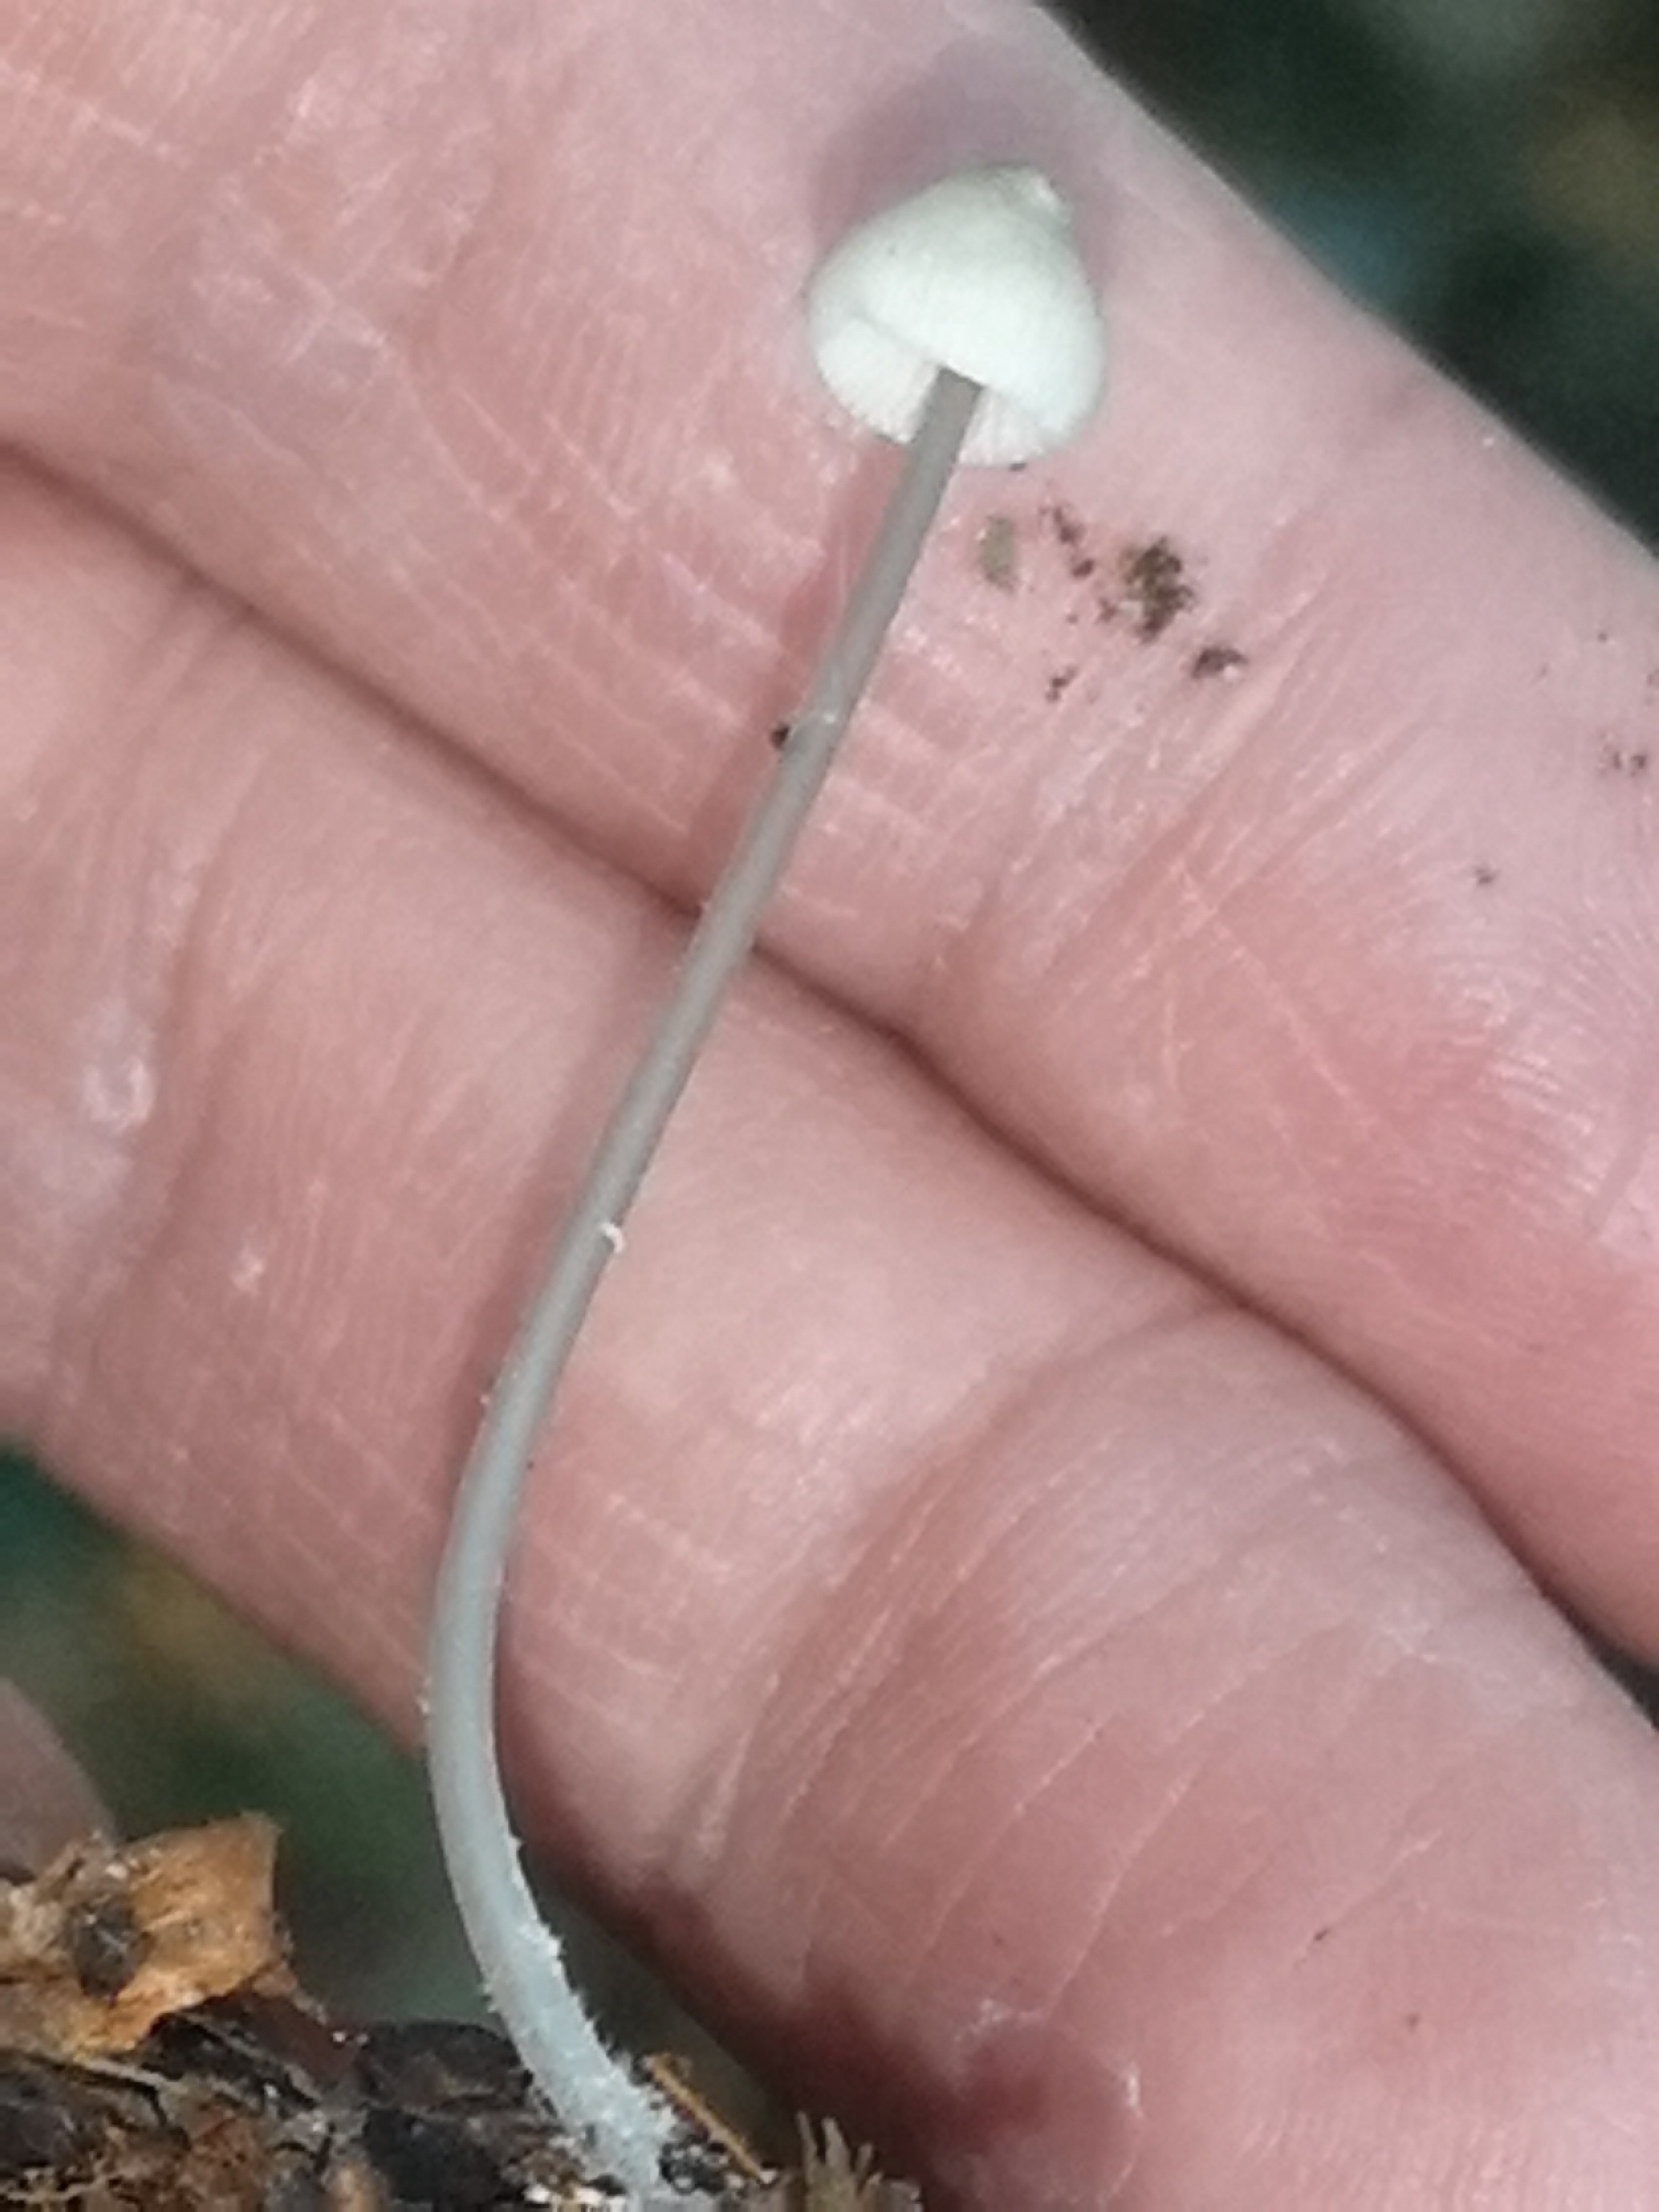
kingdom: Fungi
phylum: Basidiomycota
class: Agaricomycetes
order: Agaricales
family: Mycenaceae
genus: Mycena
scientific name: Mycena vitilis
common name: blankstokket huesvamp
